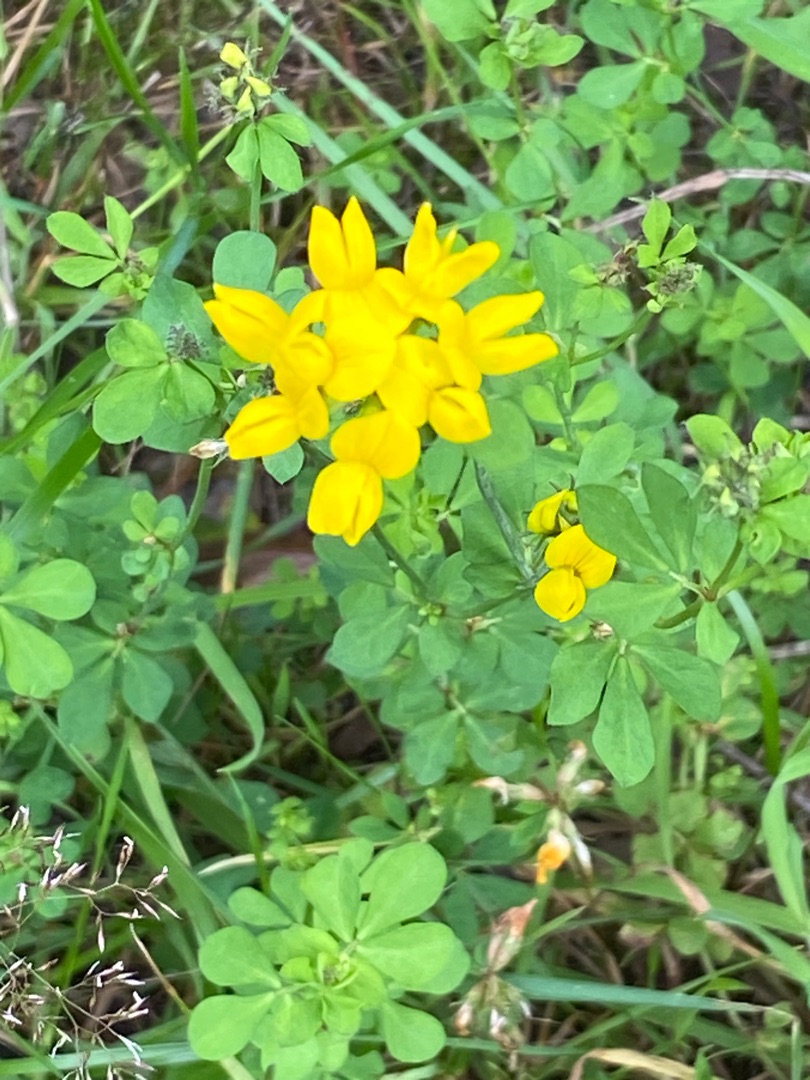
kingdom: Plantae
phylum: Tracheophyta
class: Magnoliopsida
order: Fabales
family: Fabaceae
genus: Lotus
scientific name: Lotus pedunculatus
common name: Sump-kællingetand
